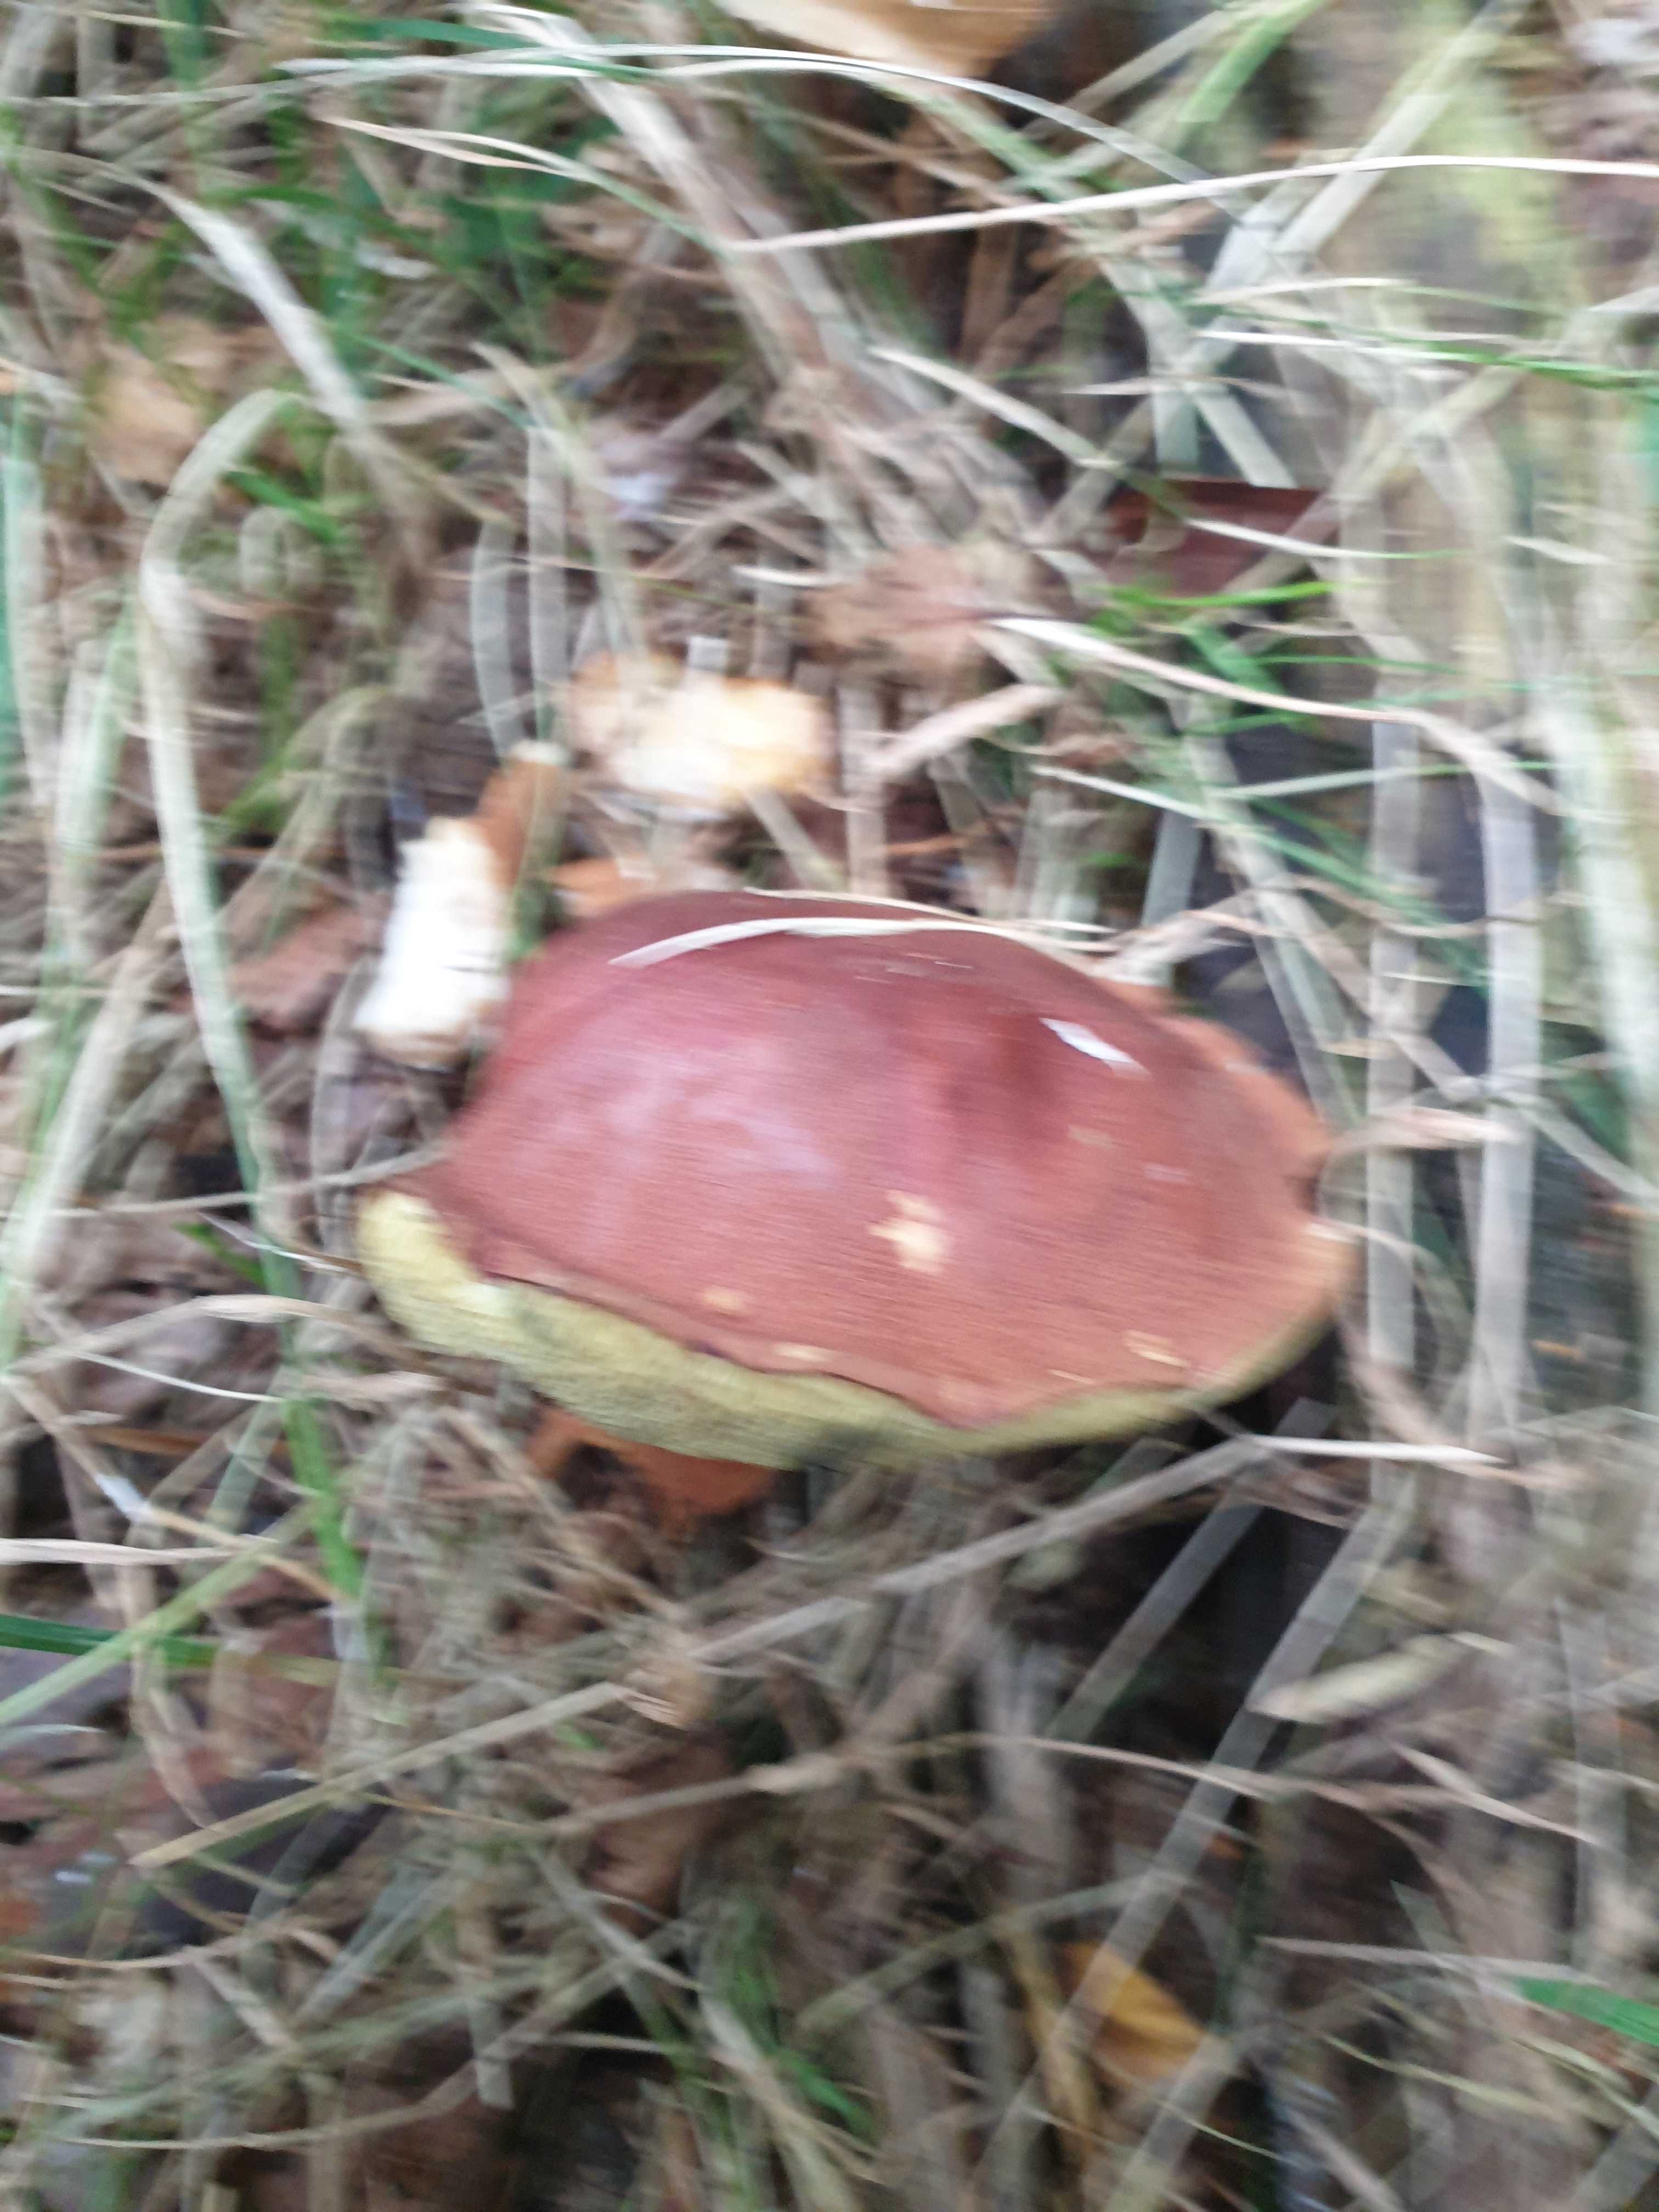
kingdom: Fungi
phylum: Basidiomycota
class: Agaricomycetes
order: Boletales
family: Boletaceae
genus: Imleria
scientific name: Imleria badia
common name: brunstokket rørhat
